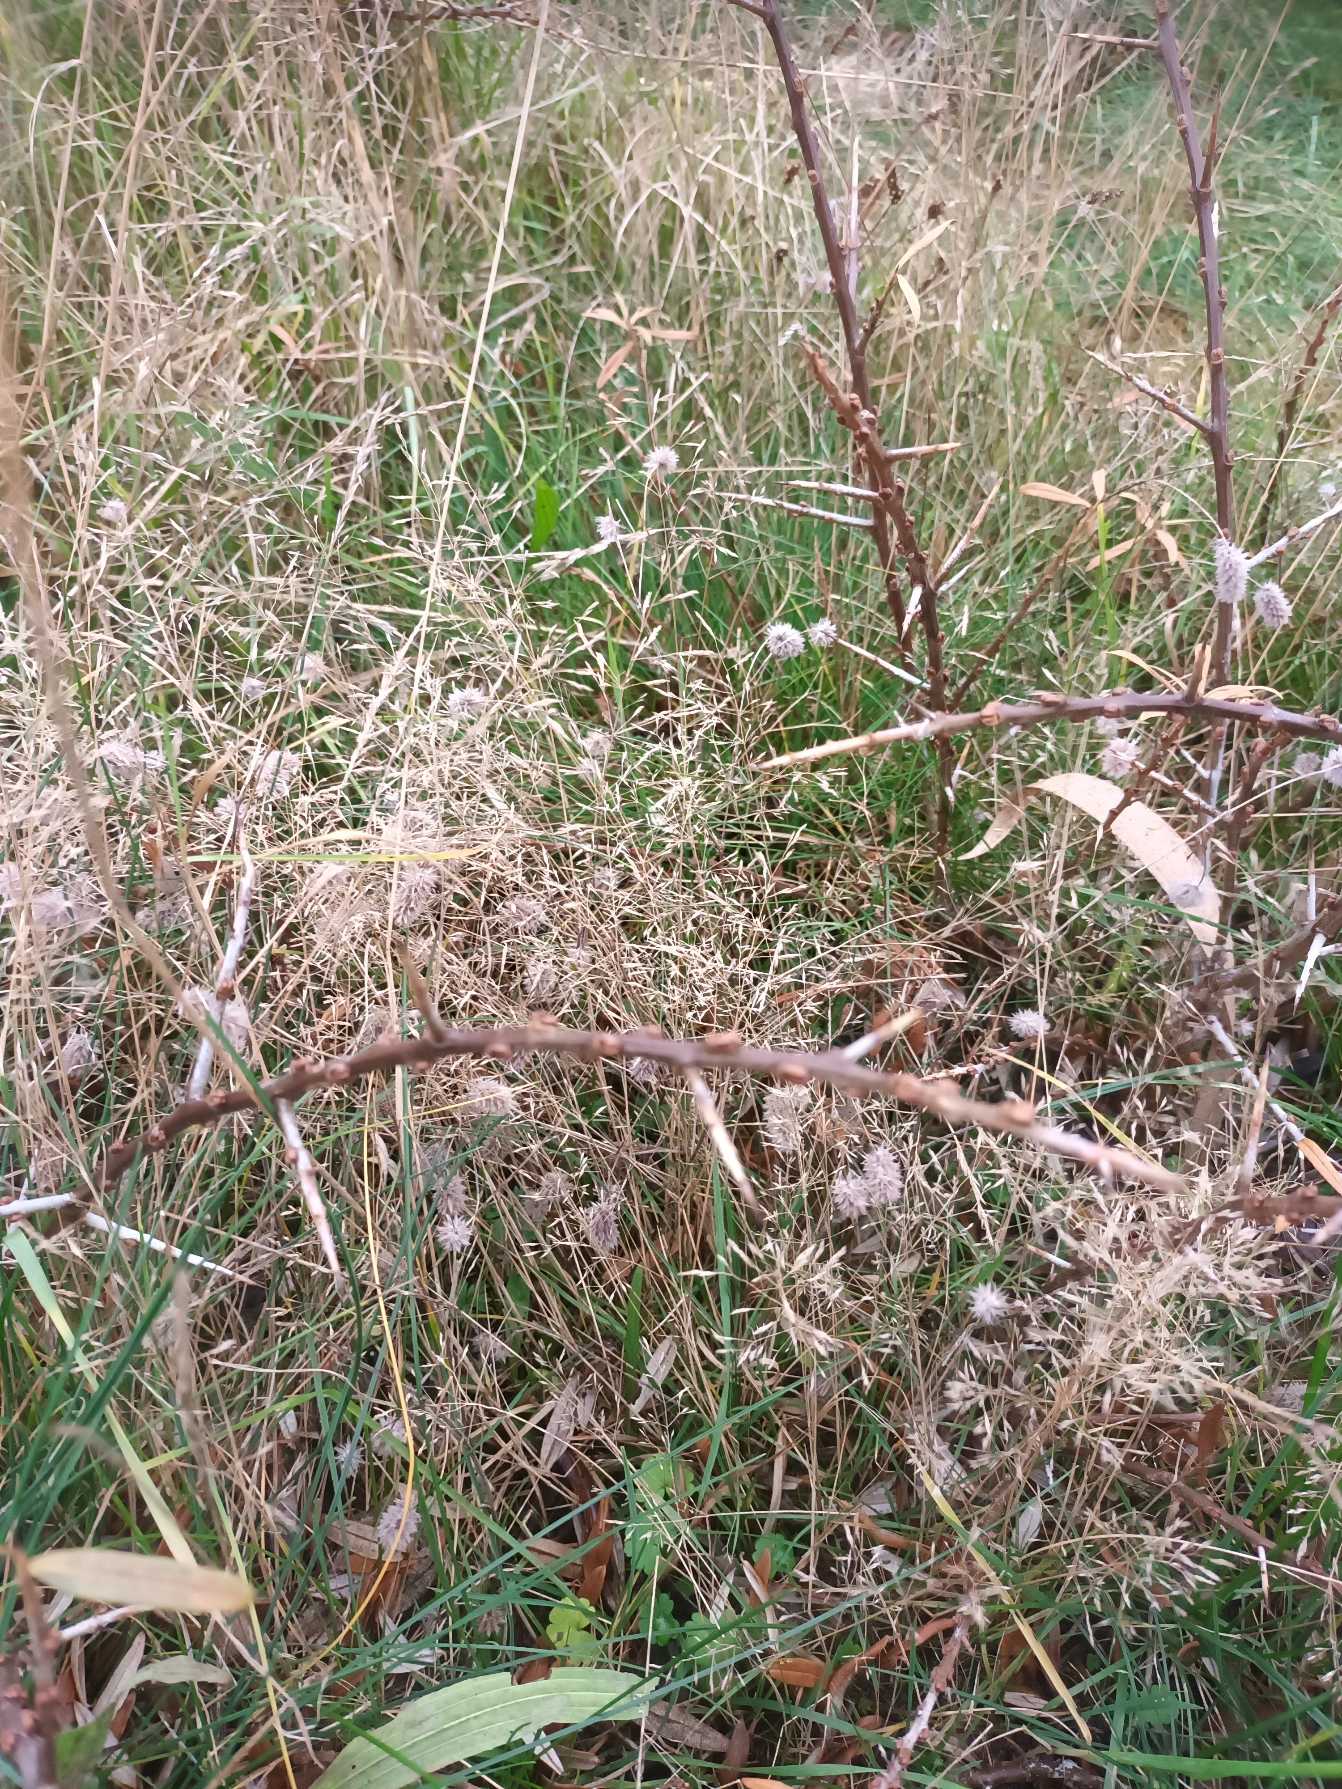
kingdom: Plantae
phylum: Tracheophyta
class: Liliopsida
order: Poales
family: Poaceae
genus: Agrostis
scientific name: Agrostis capillaris
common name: Almindelig hvene
